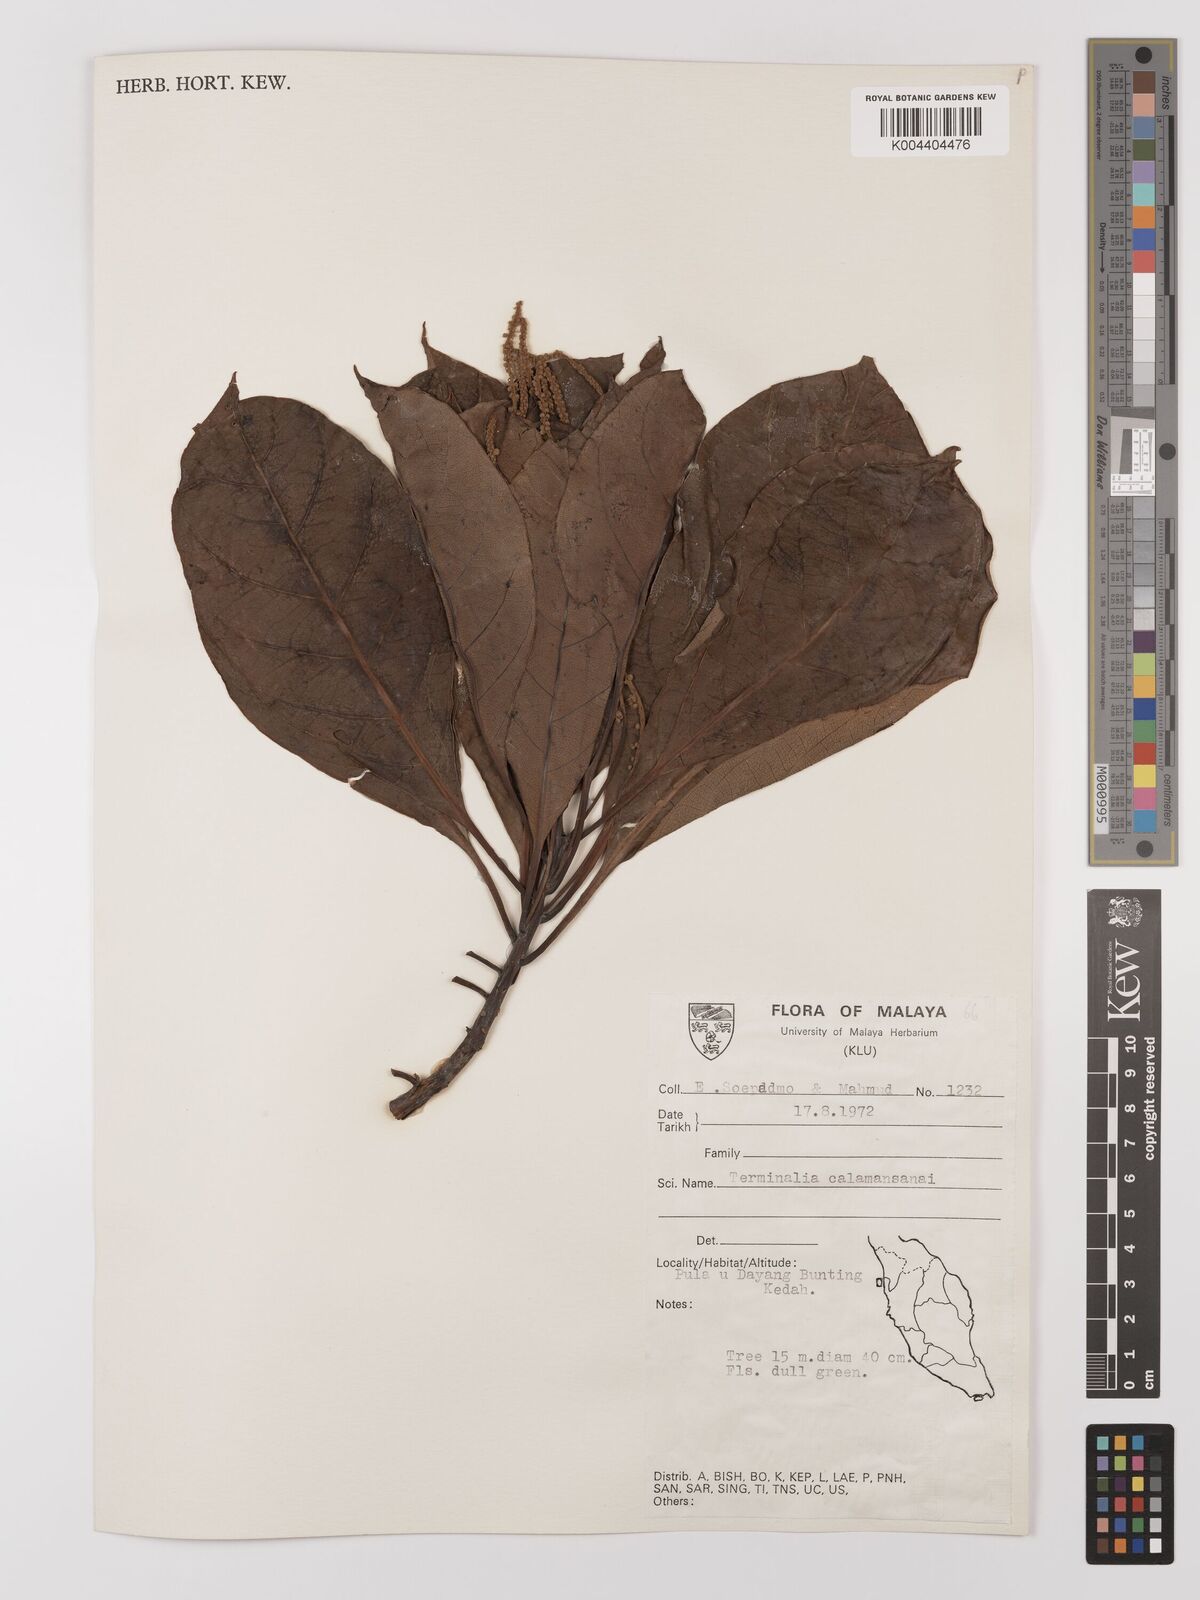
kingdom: Plantae
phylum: Tracheophyta
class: Magnoliopsida
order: Myrtales
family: Combretaceae
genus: Terminalia
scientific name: Terminalia calamansanai
